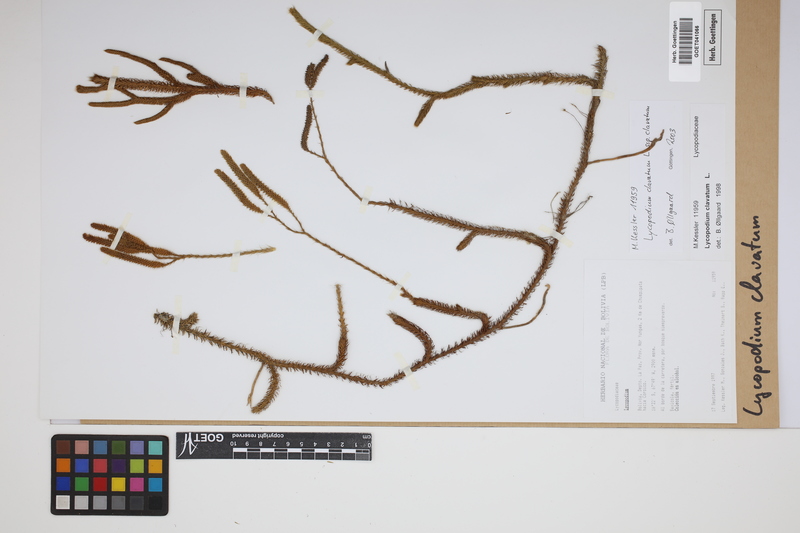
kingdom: Plantae
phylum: Tracheophyta
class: Lycopodiopsida
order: Lycopodiales
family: Lycopodiaceae
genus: Lycopodium
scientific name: Lycopodium clavatum
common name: Stag's-horn clubmoss
